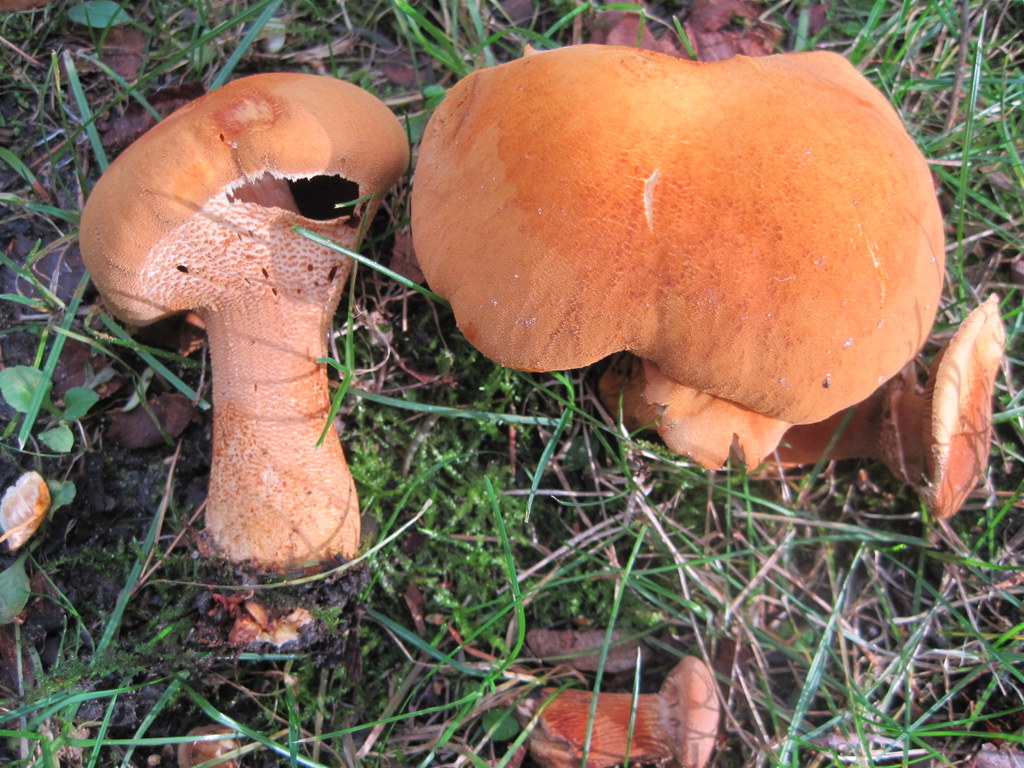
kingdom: Fungi
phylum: Basidiomycota
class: Agaricomycetes
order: Agaricales
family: Tricholomataceae
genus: Phaeolepiota
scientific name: Phaeolepiota aurea
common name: gyldenhat
